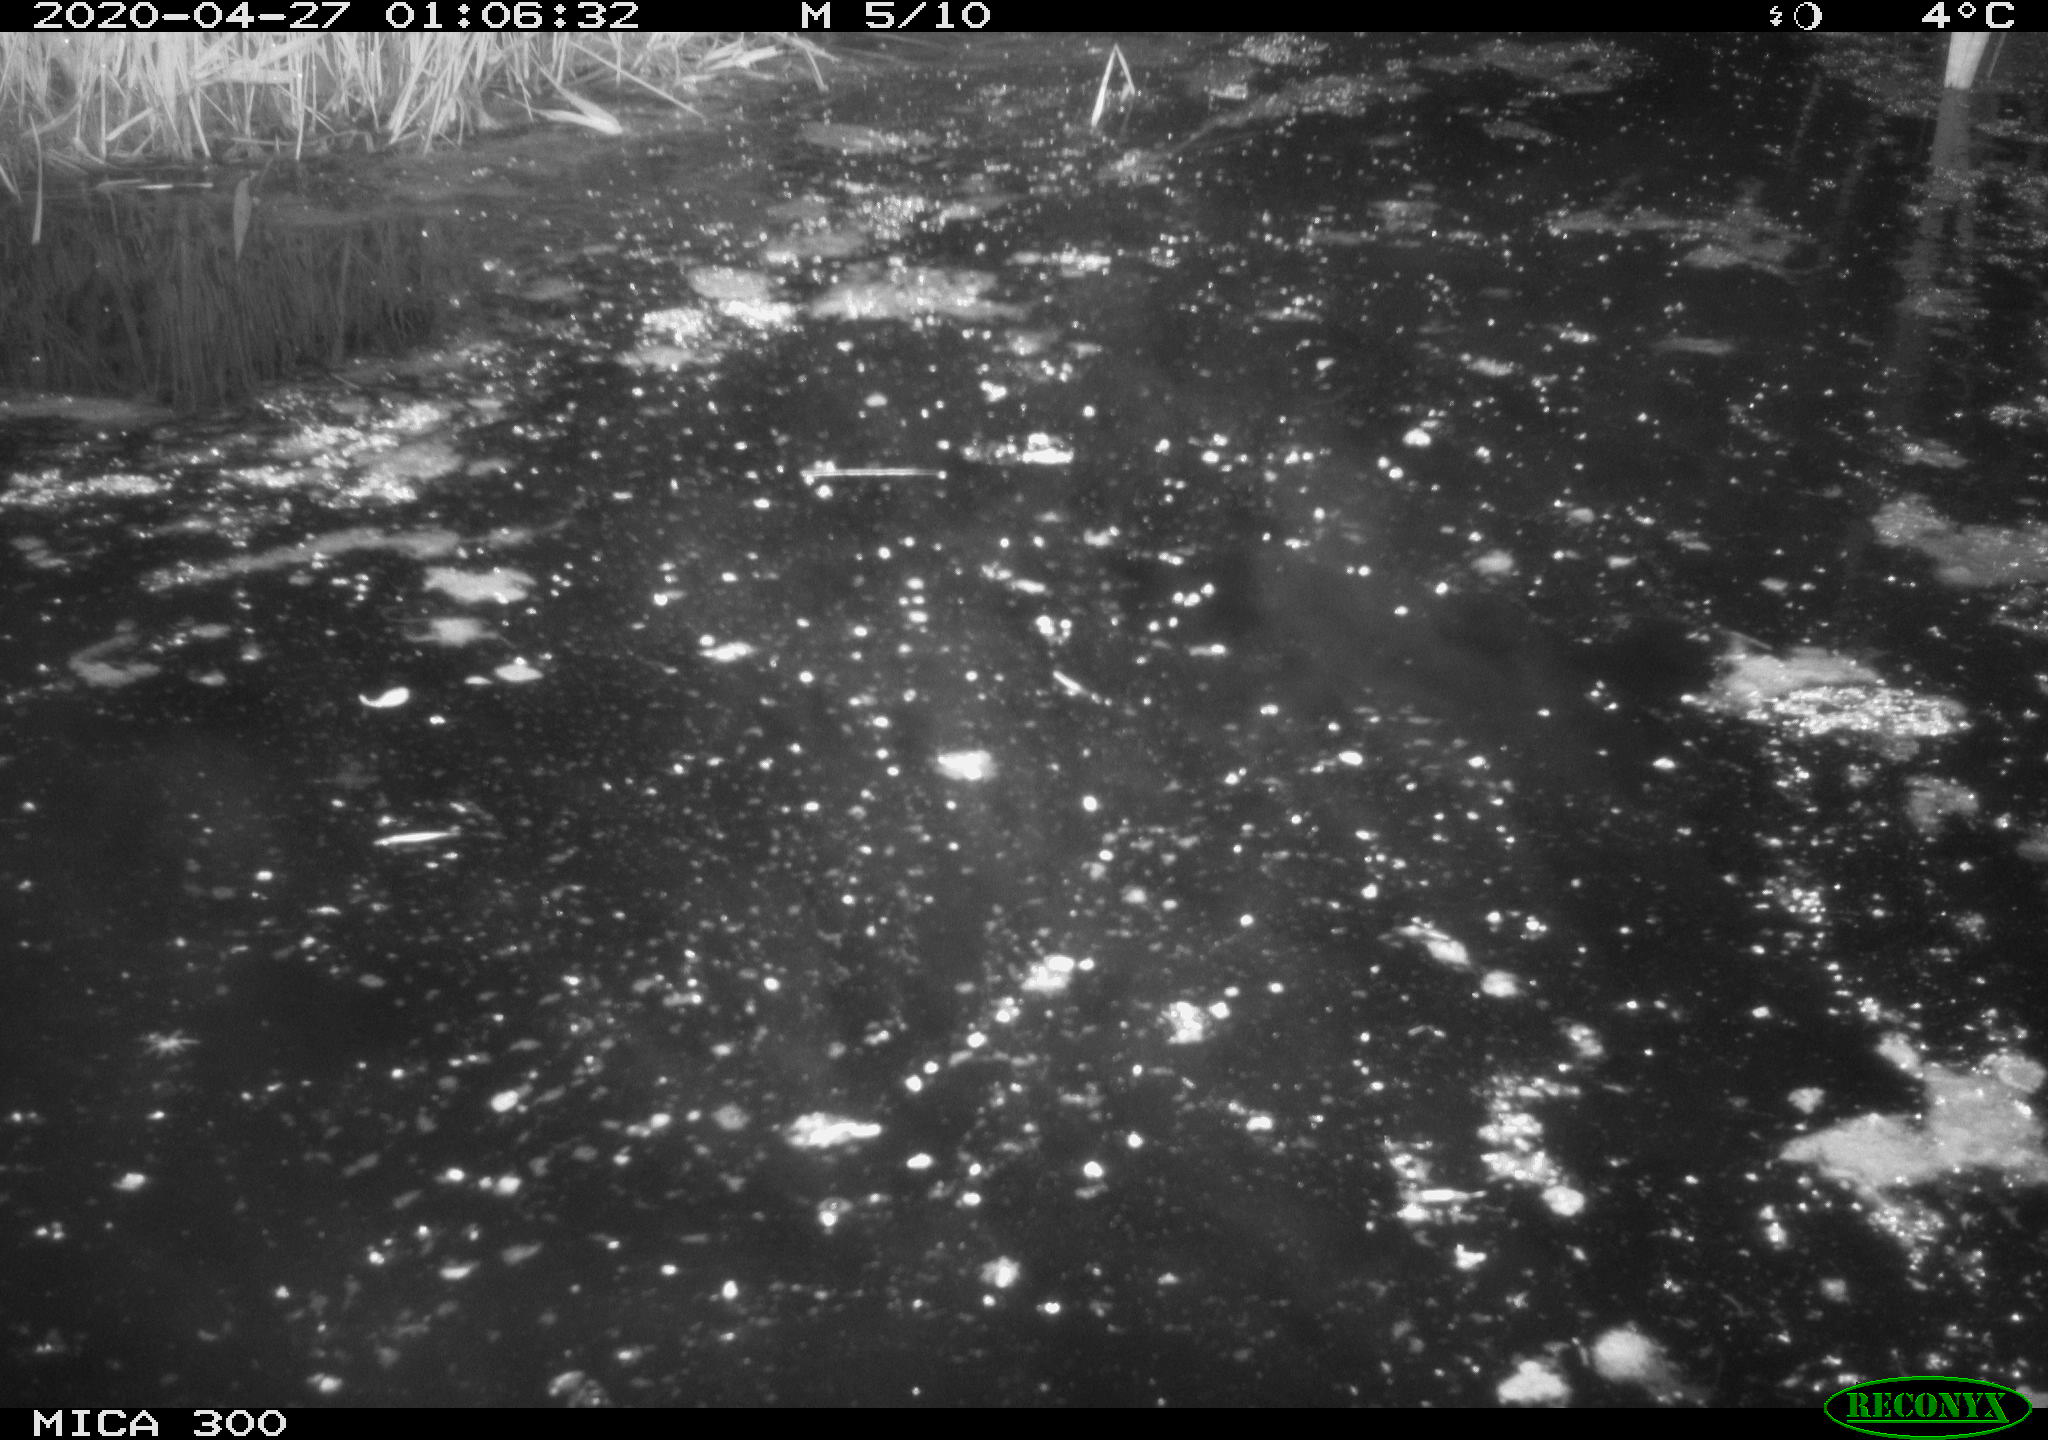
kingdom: Animalia
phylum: Chordata
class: Mammalia
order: Rodentia
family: Castoridae
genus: Castor
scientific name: Castor fiber
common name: Eurasian beaver
